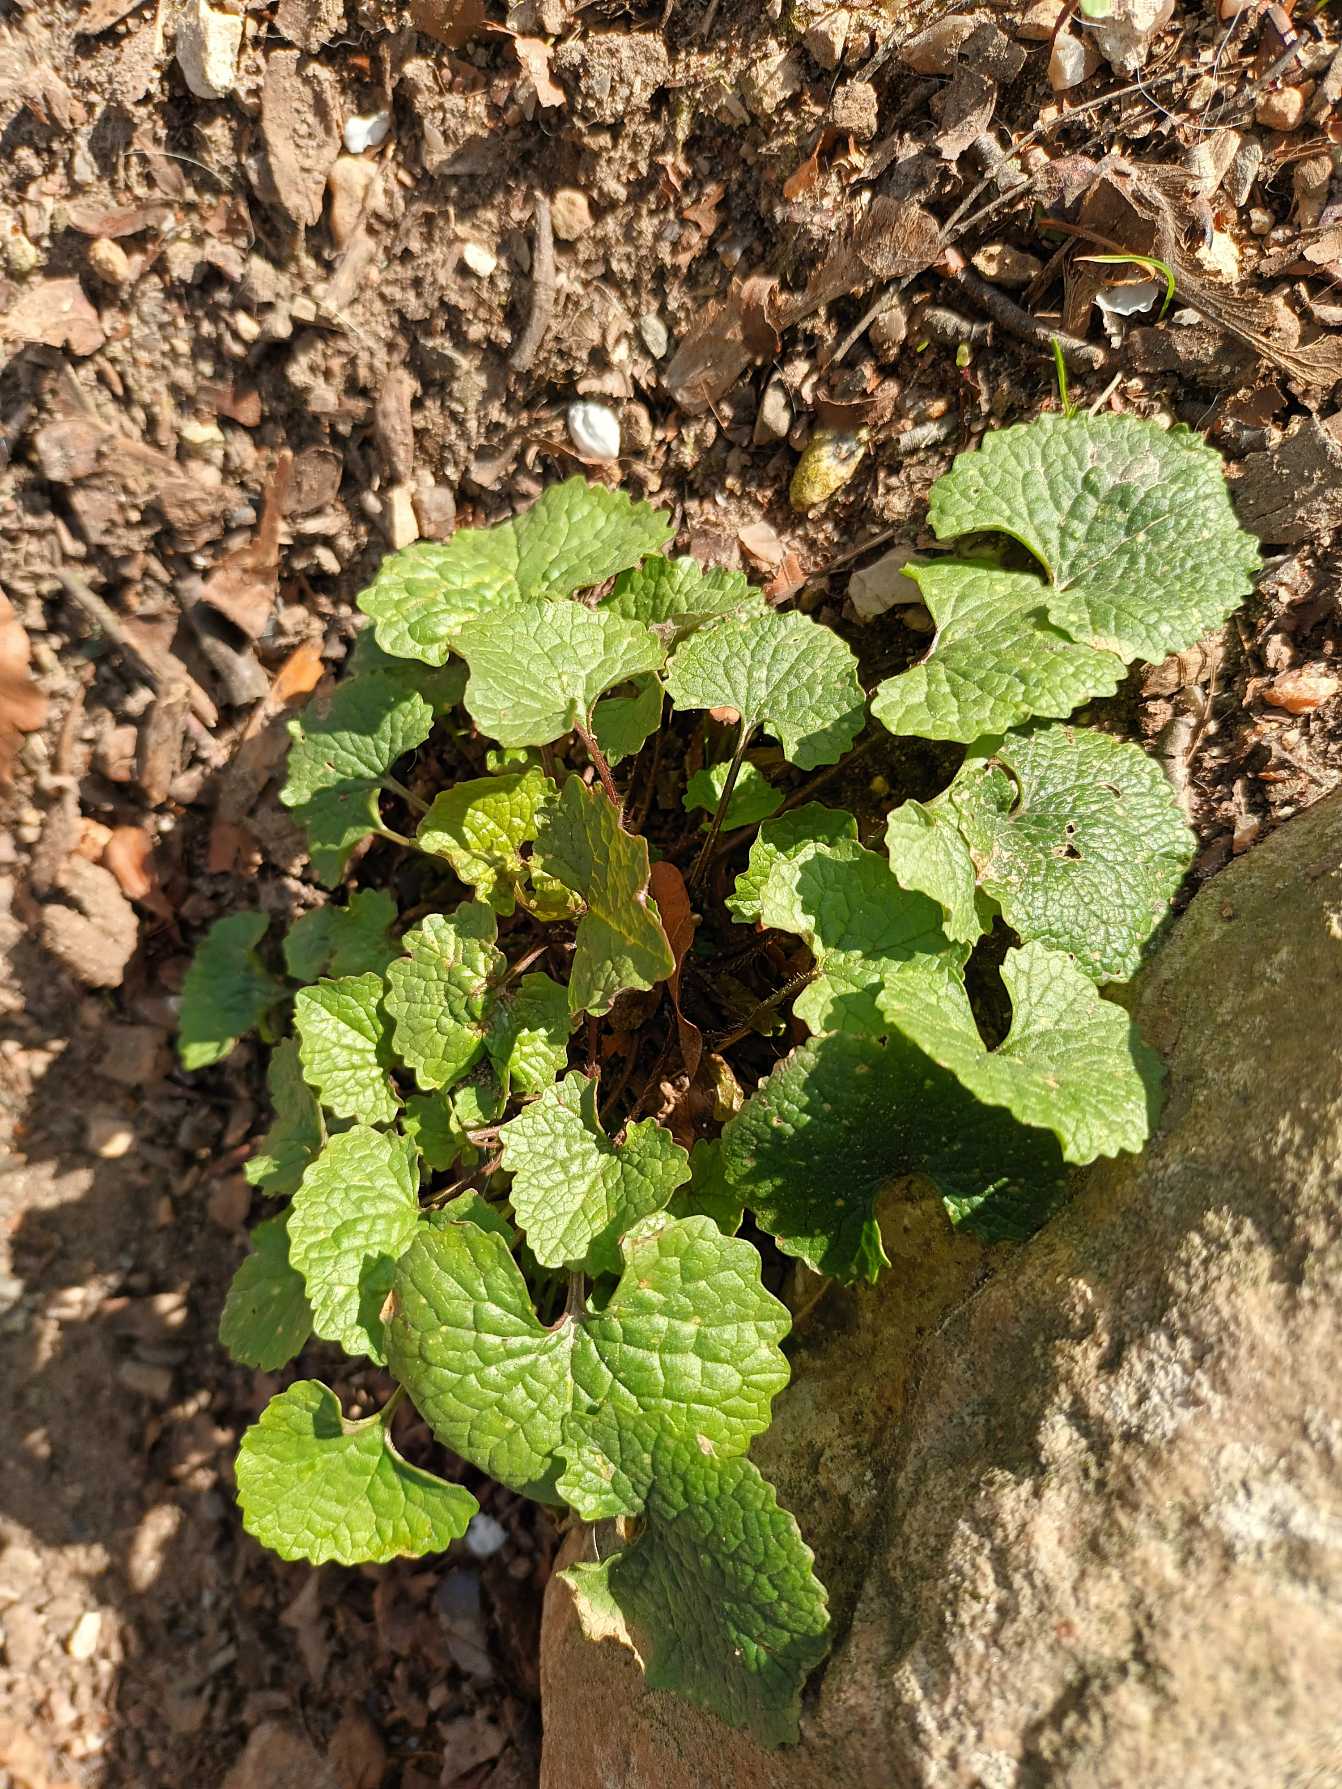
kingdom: Plantae
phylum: Tracheophyta
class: Magnoliopsida
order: Brassicales
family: Brassicaceae
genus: Alliaria
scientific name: Alliaria petiolata
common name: Løgkarse
